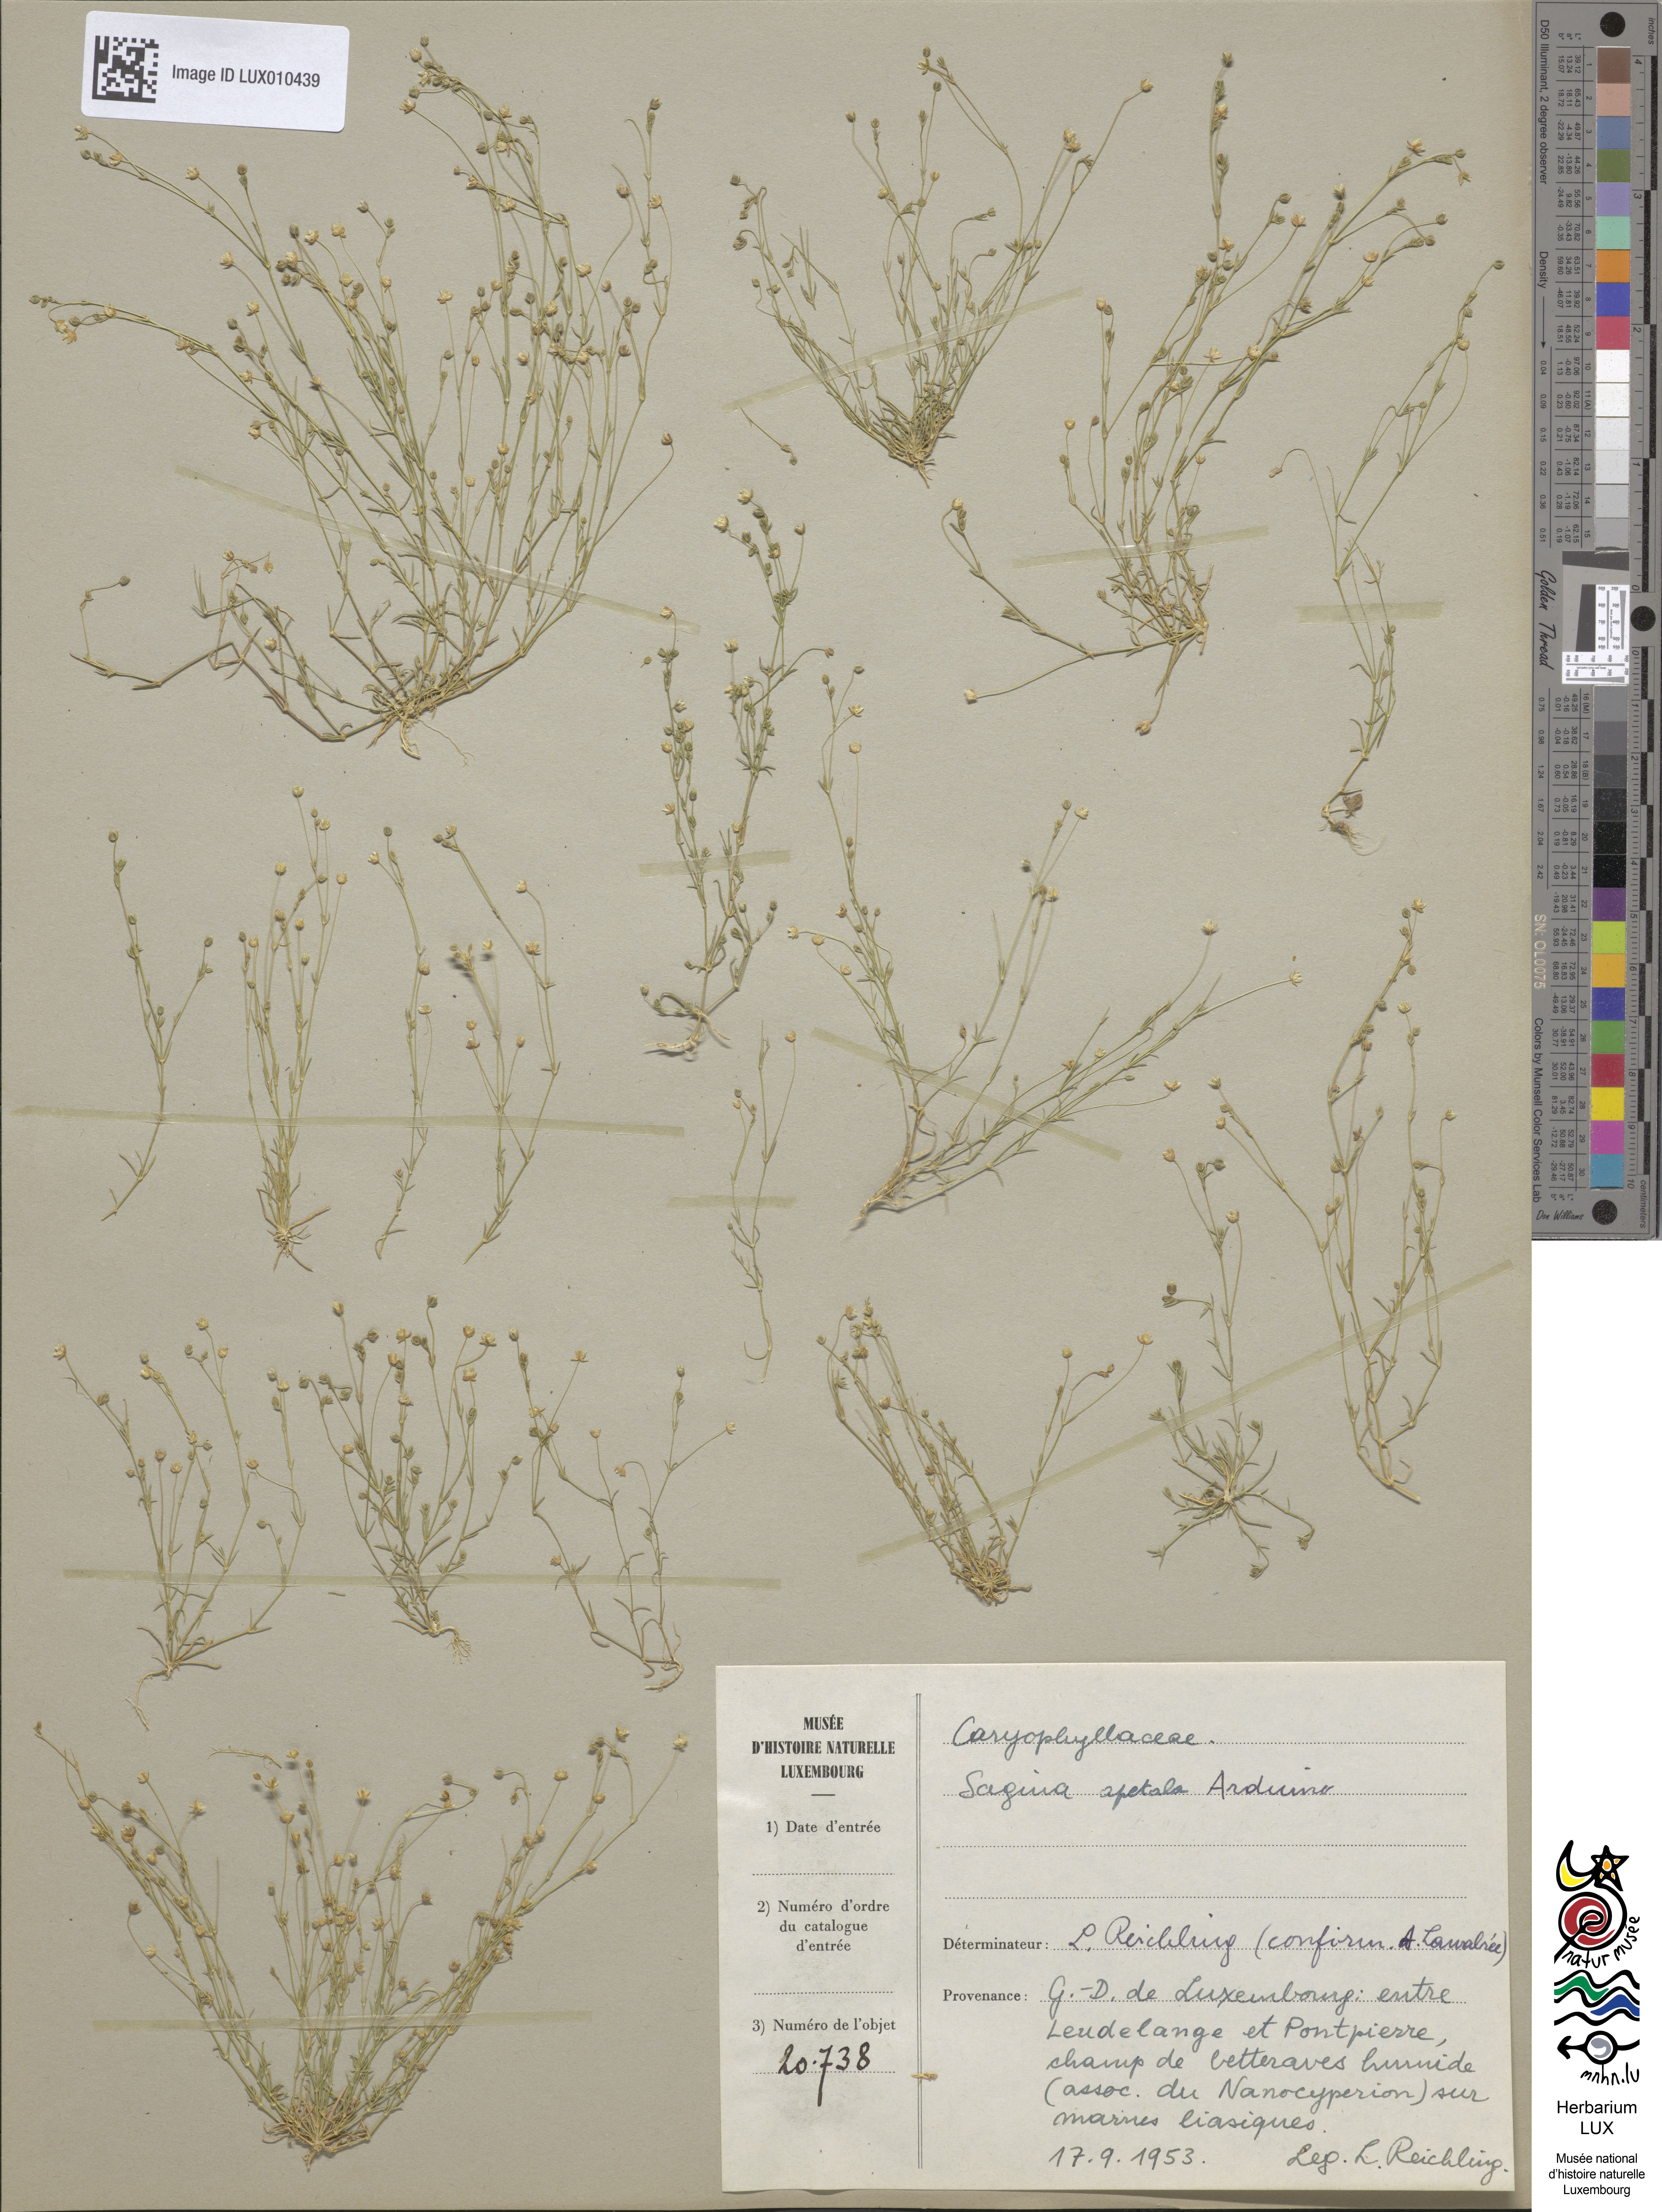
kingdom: Plantae
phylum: Tracheophyta
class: Magnoliopsida
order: Caryophyllales
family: Caryophyllaceae
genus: Sagina
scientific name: Sagina apetala
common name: Annual pearlwort
